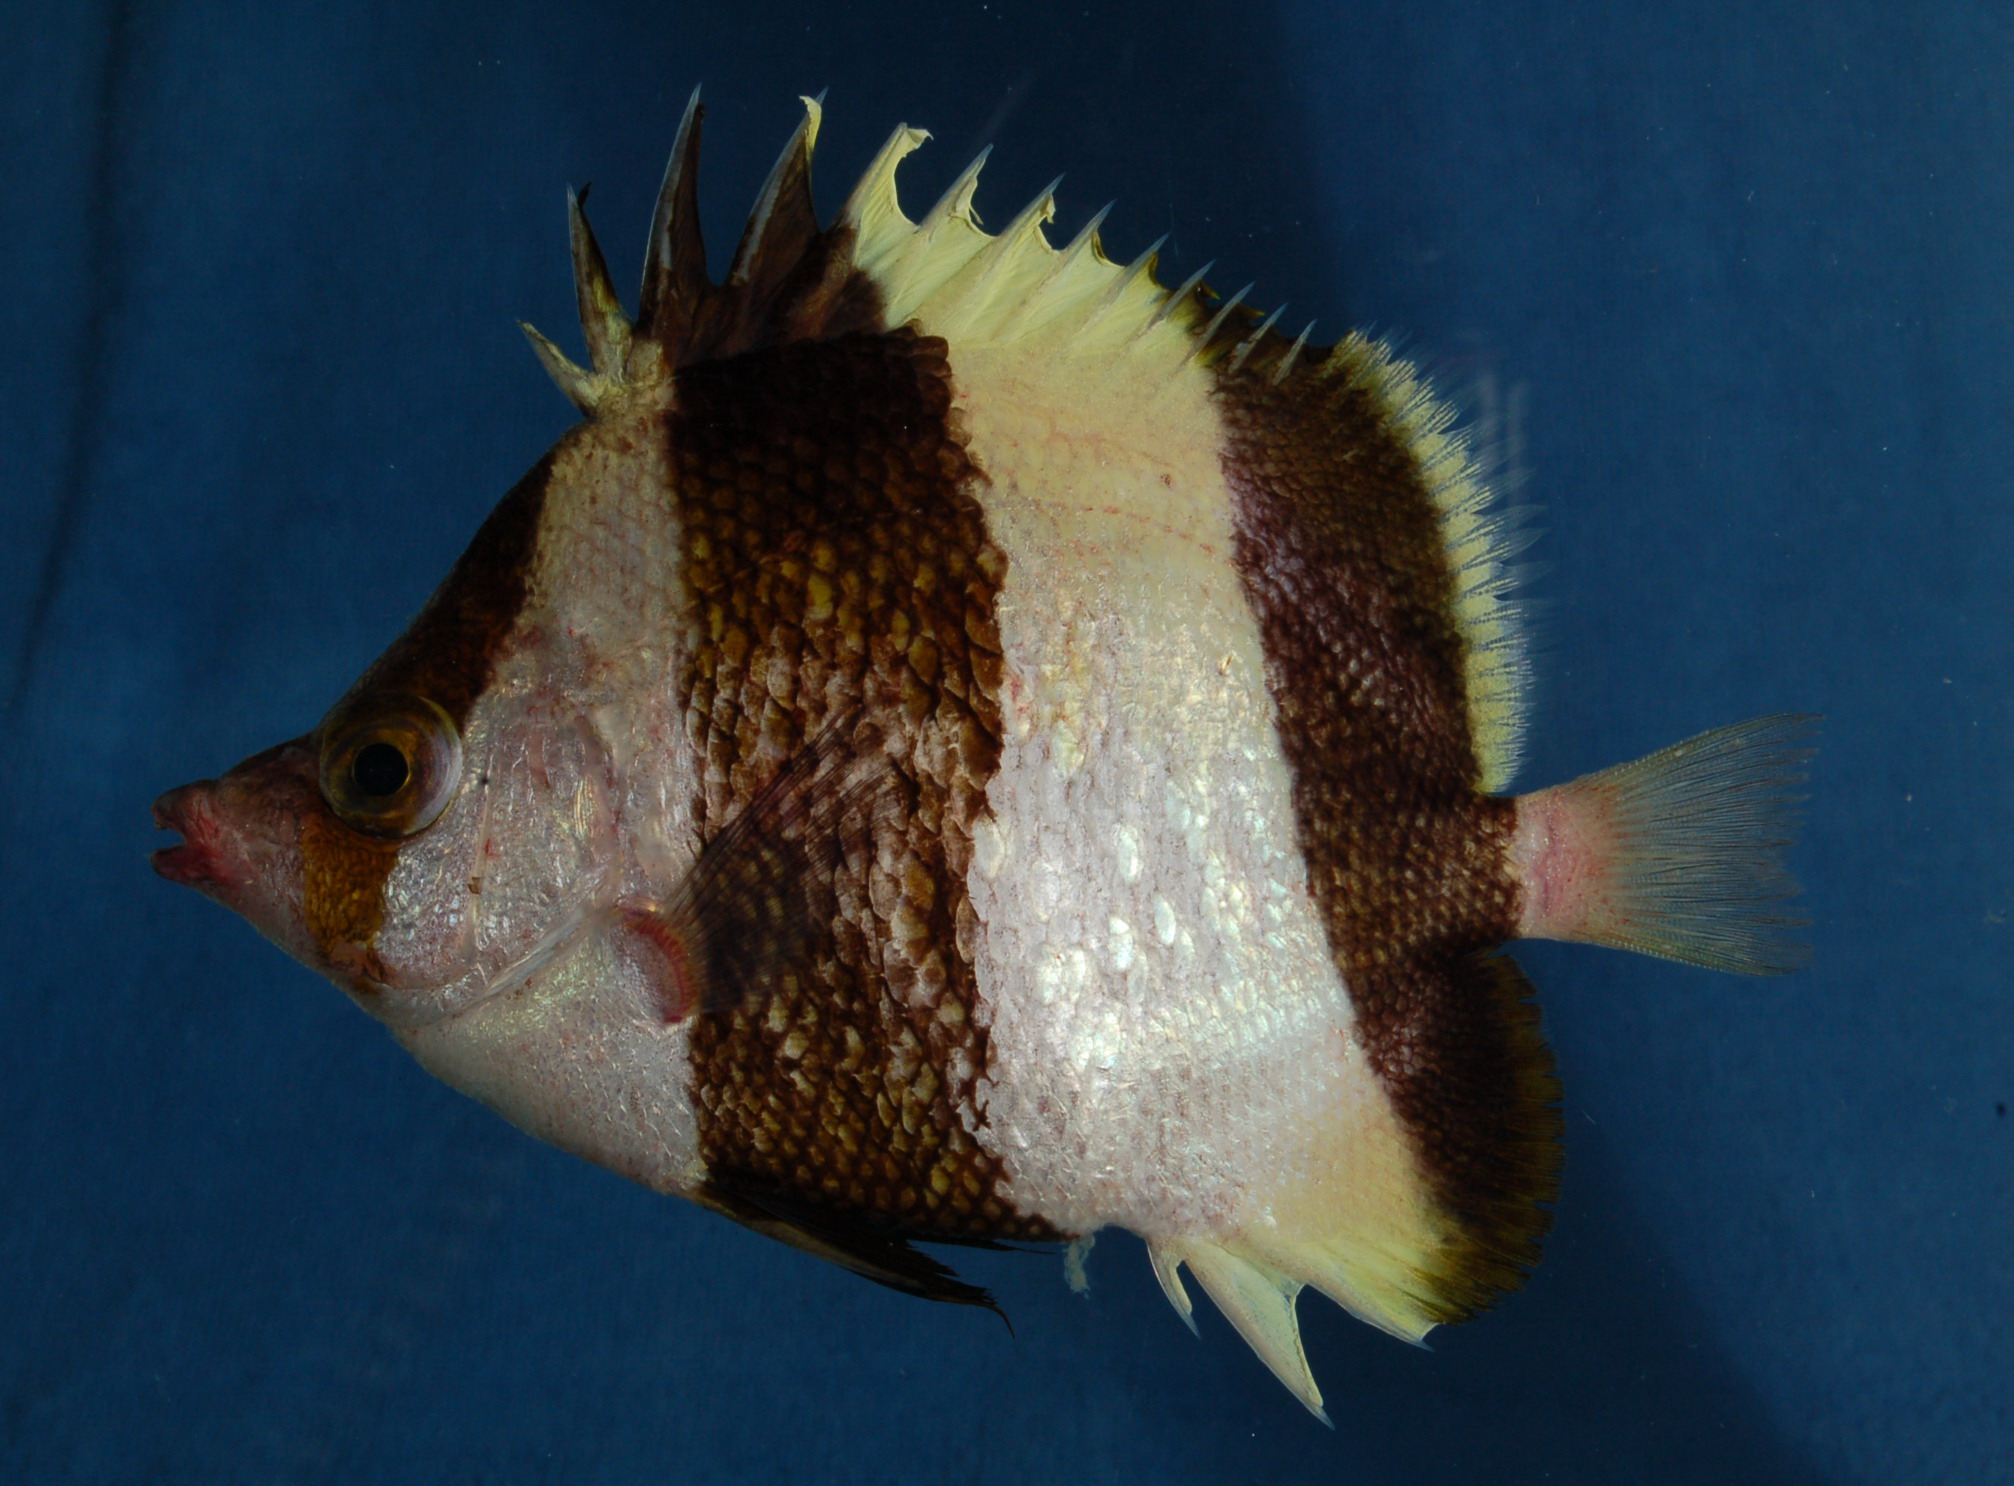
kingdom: Animalia
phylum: Chordata
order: Perciformes
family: Chaetodontidae
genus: Roa
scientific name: Roa
